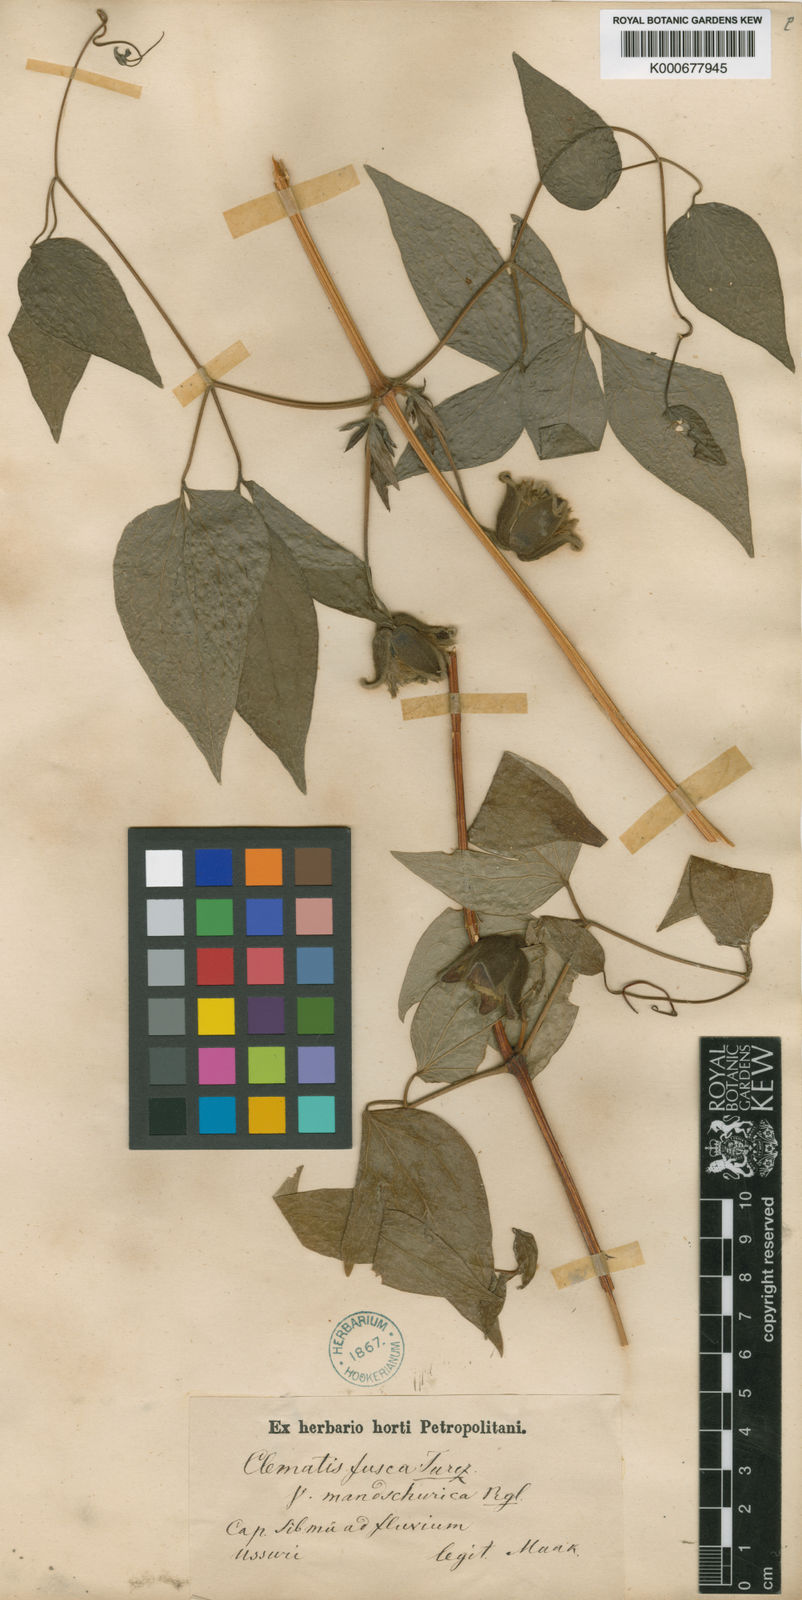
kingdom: Plantae
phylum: Tracheophyta
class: Magnoliopsida
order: Ranunculales
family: Ranunculaceae
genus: Clematis
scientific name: Clematis fusca
